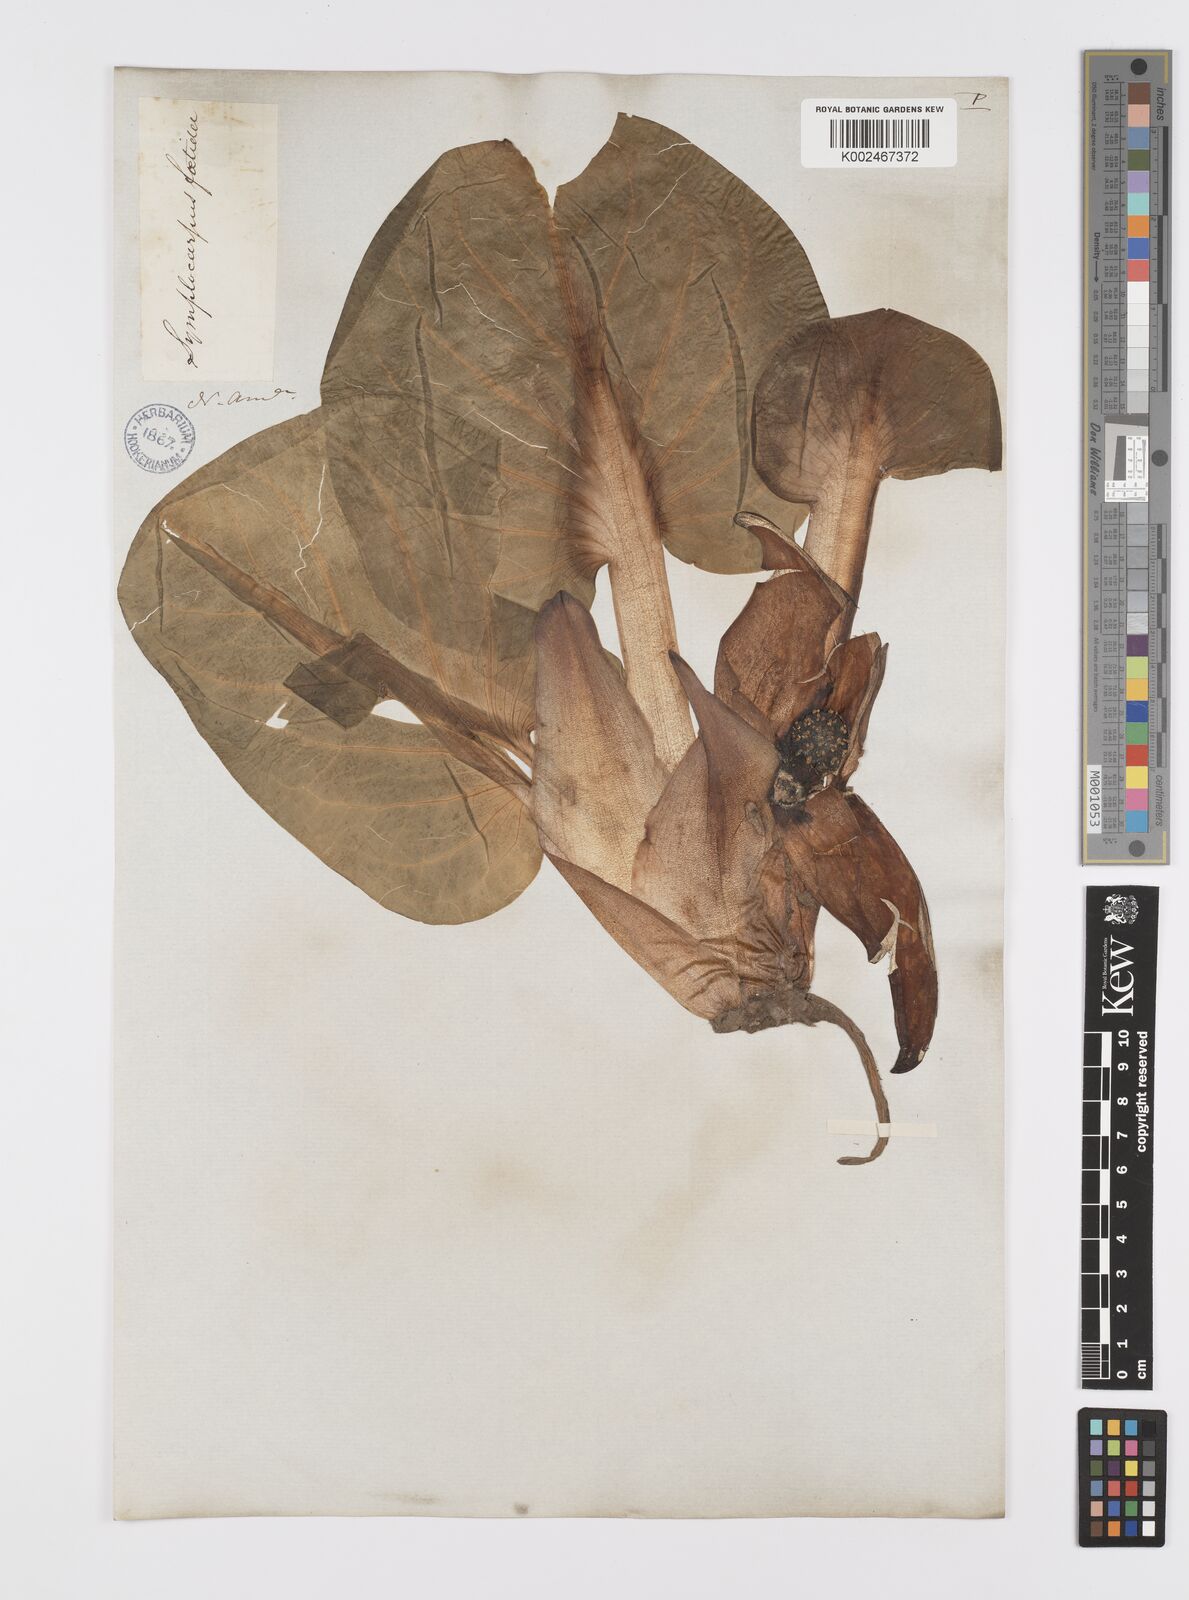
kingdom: Plantae
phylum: Tracheophyta
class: Liliopsida
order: Alismatales
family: Araceae
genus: Symplocarpus
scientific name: Symplocarpus foetidus
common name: Eastern skunk cabbage
